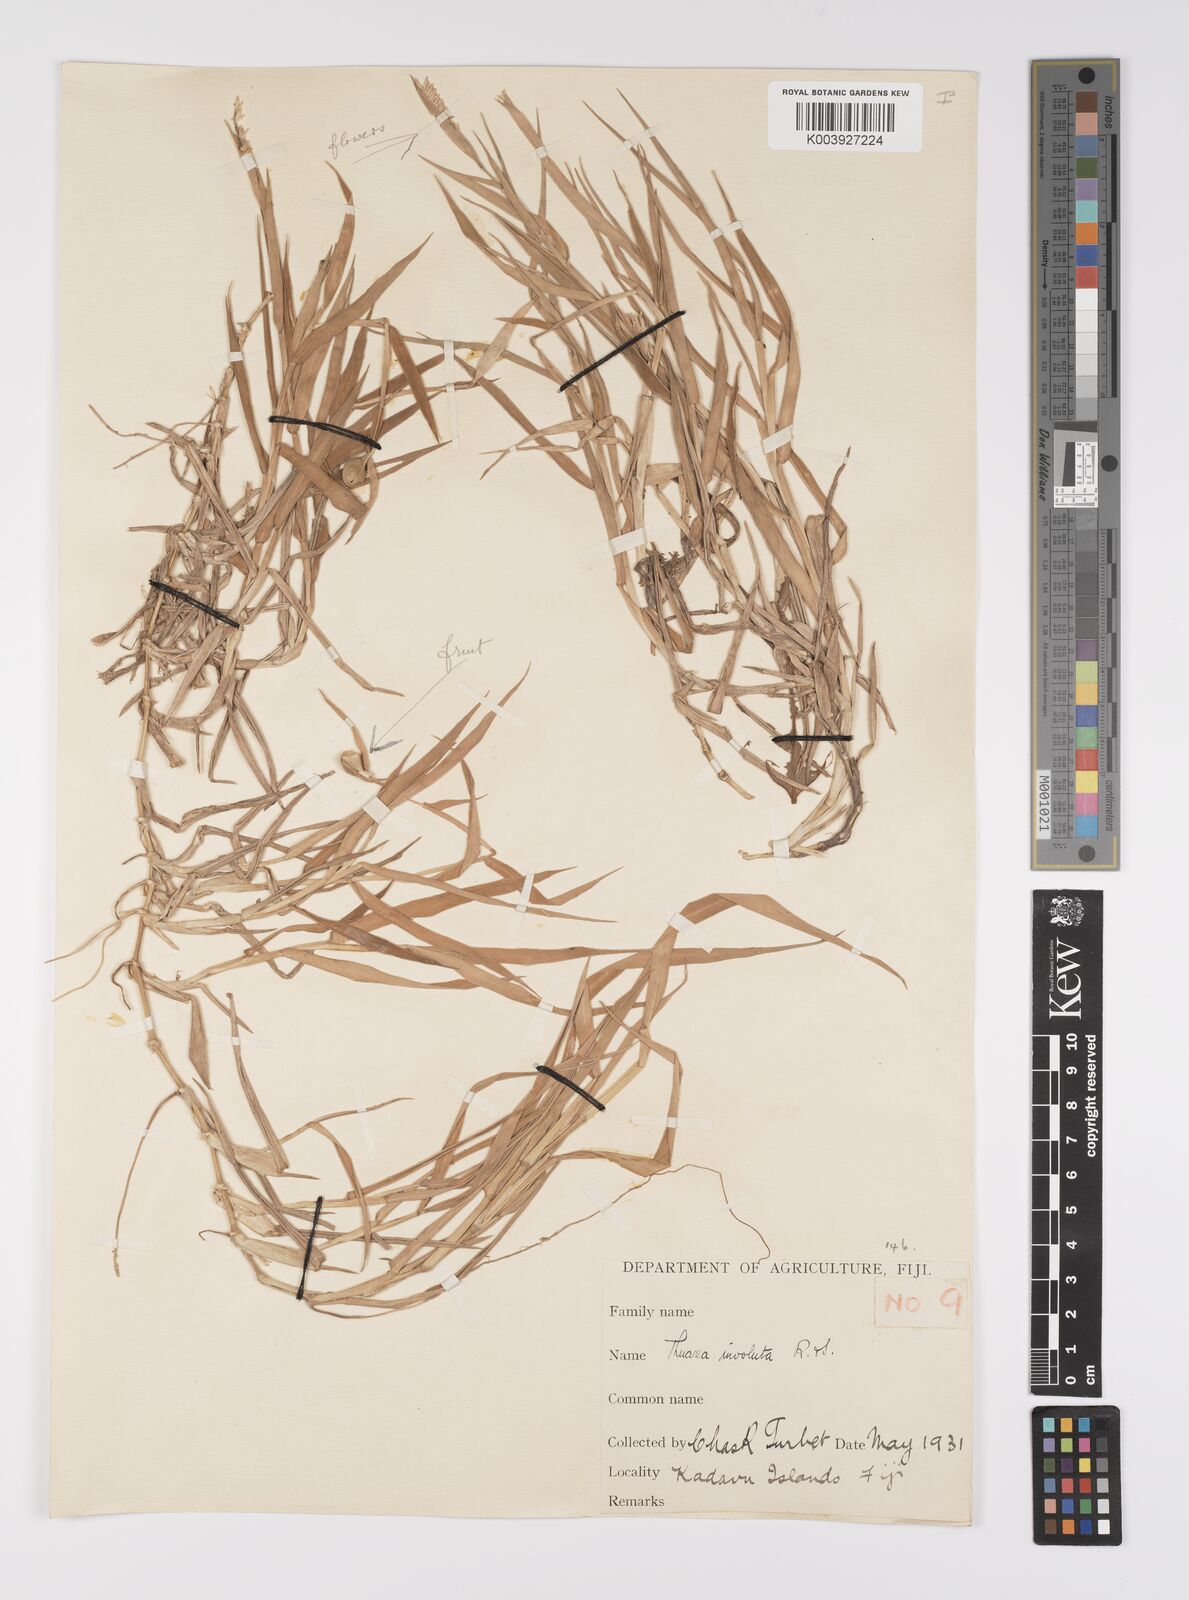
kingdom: Plantae
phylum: Tracheophyta
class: Liliopsida
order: Poales
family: Poaceae
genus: Thuarea
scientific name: Thuarea involuta
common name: Tropical beach grass
